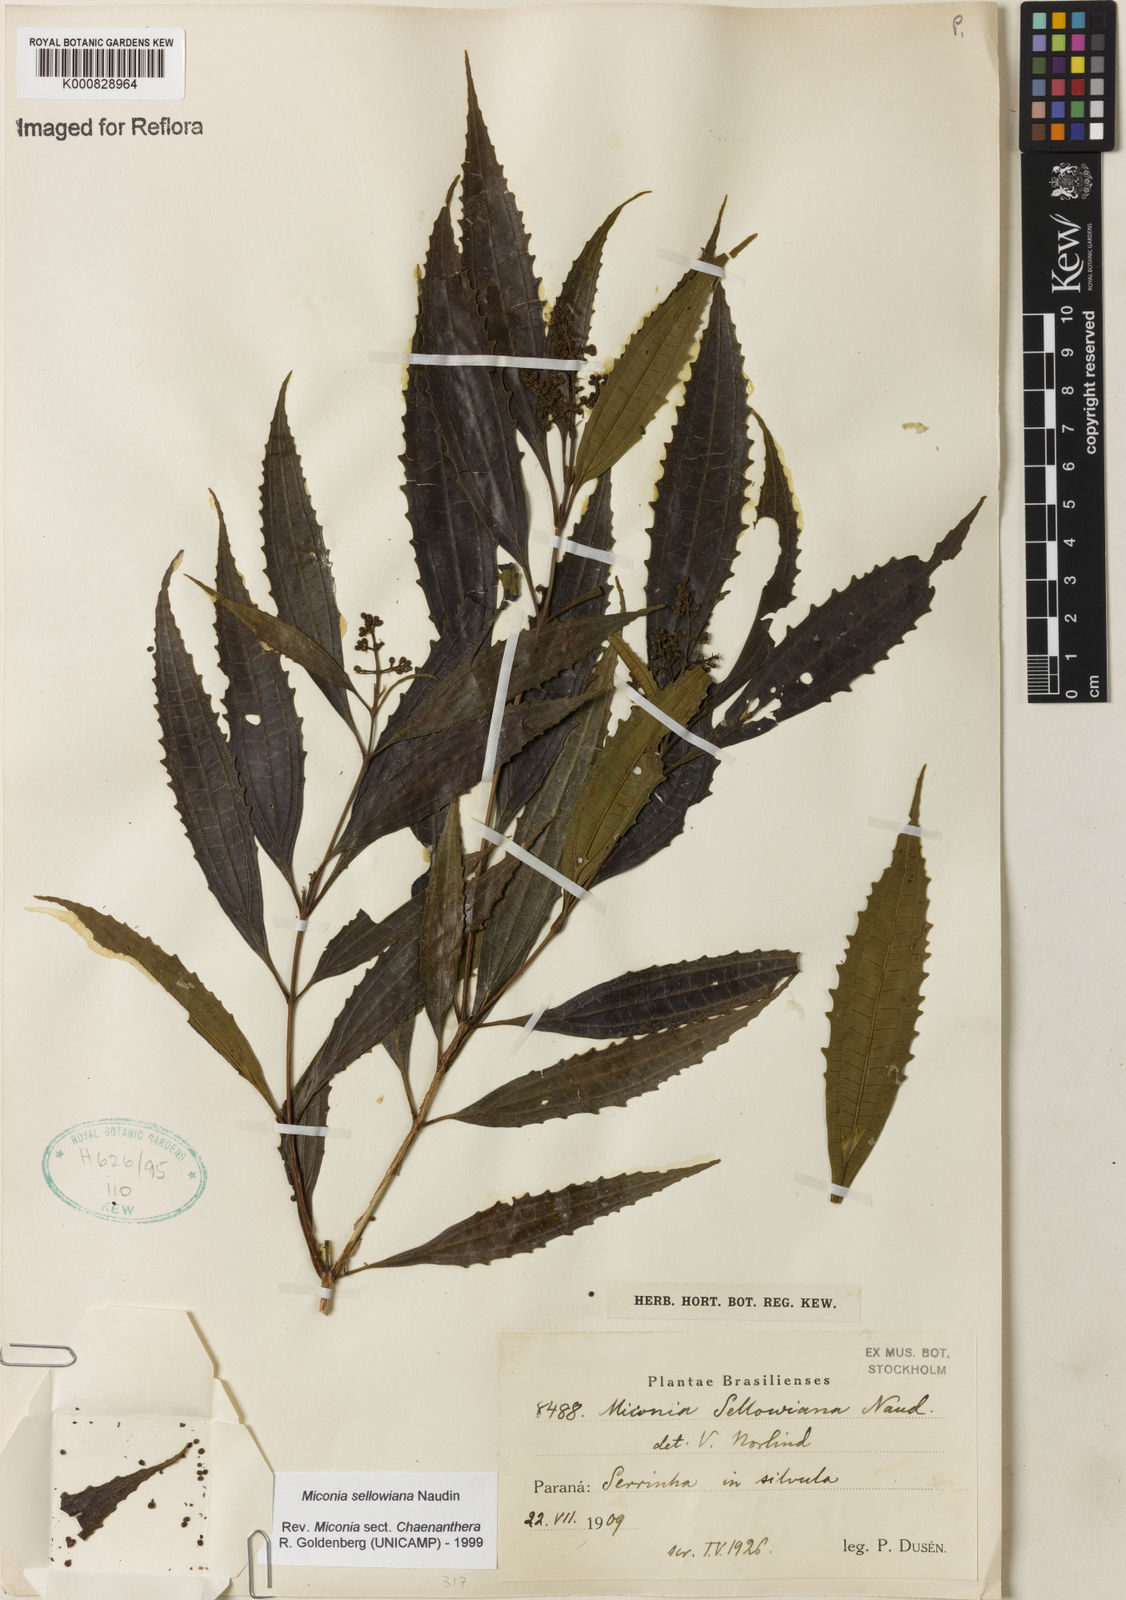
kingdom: Plantae
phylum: Tracheophyta
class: Magnoliopsida
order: Myrtales
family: Melastomataceae
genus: Miconia
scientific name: Miconia sellowiana
